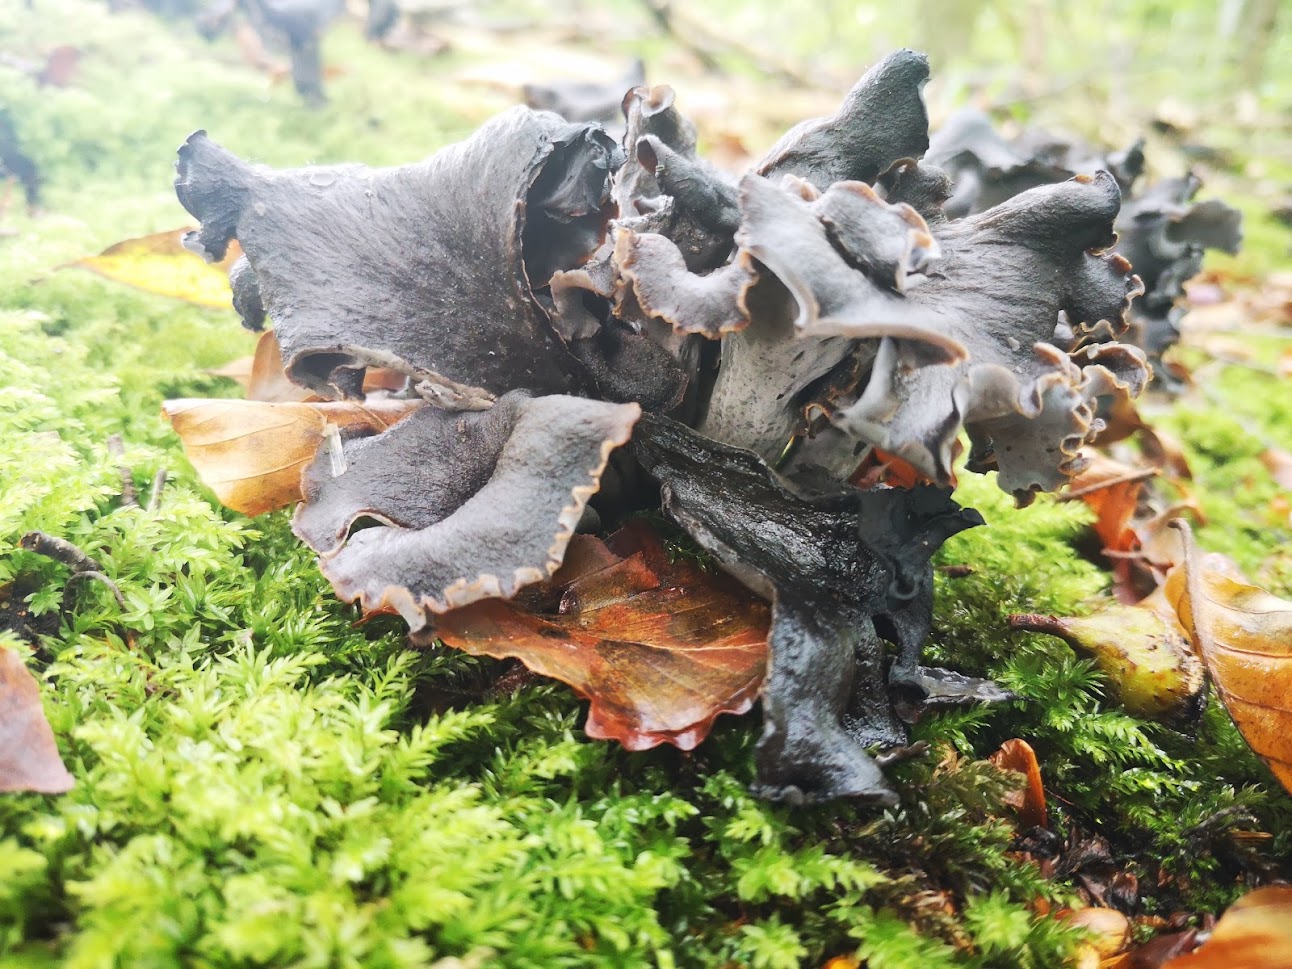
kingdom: Fungi
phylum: Basidiomycota
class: Agaricomycetes
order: Cantharellales
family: Hydnaceae
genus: Craterellus
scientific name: Craterellus cornucopioides
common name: trompetsvamp
